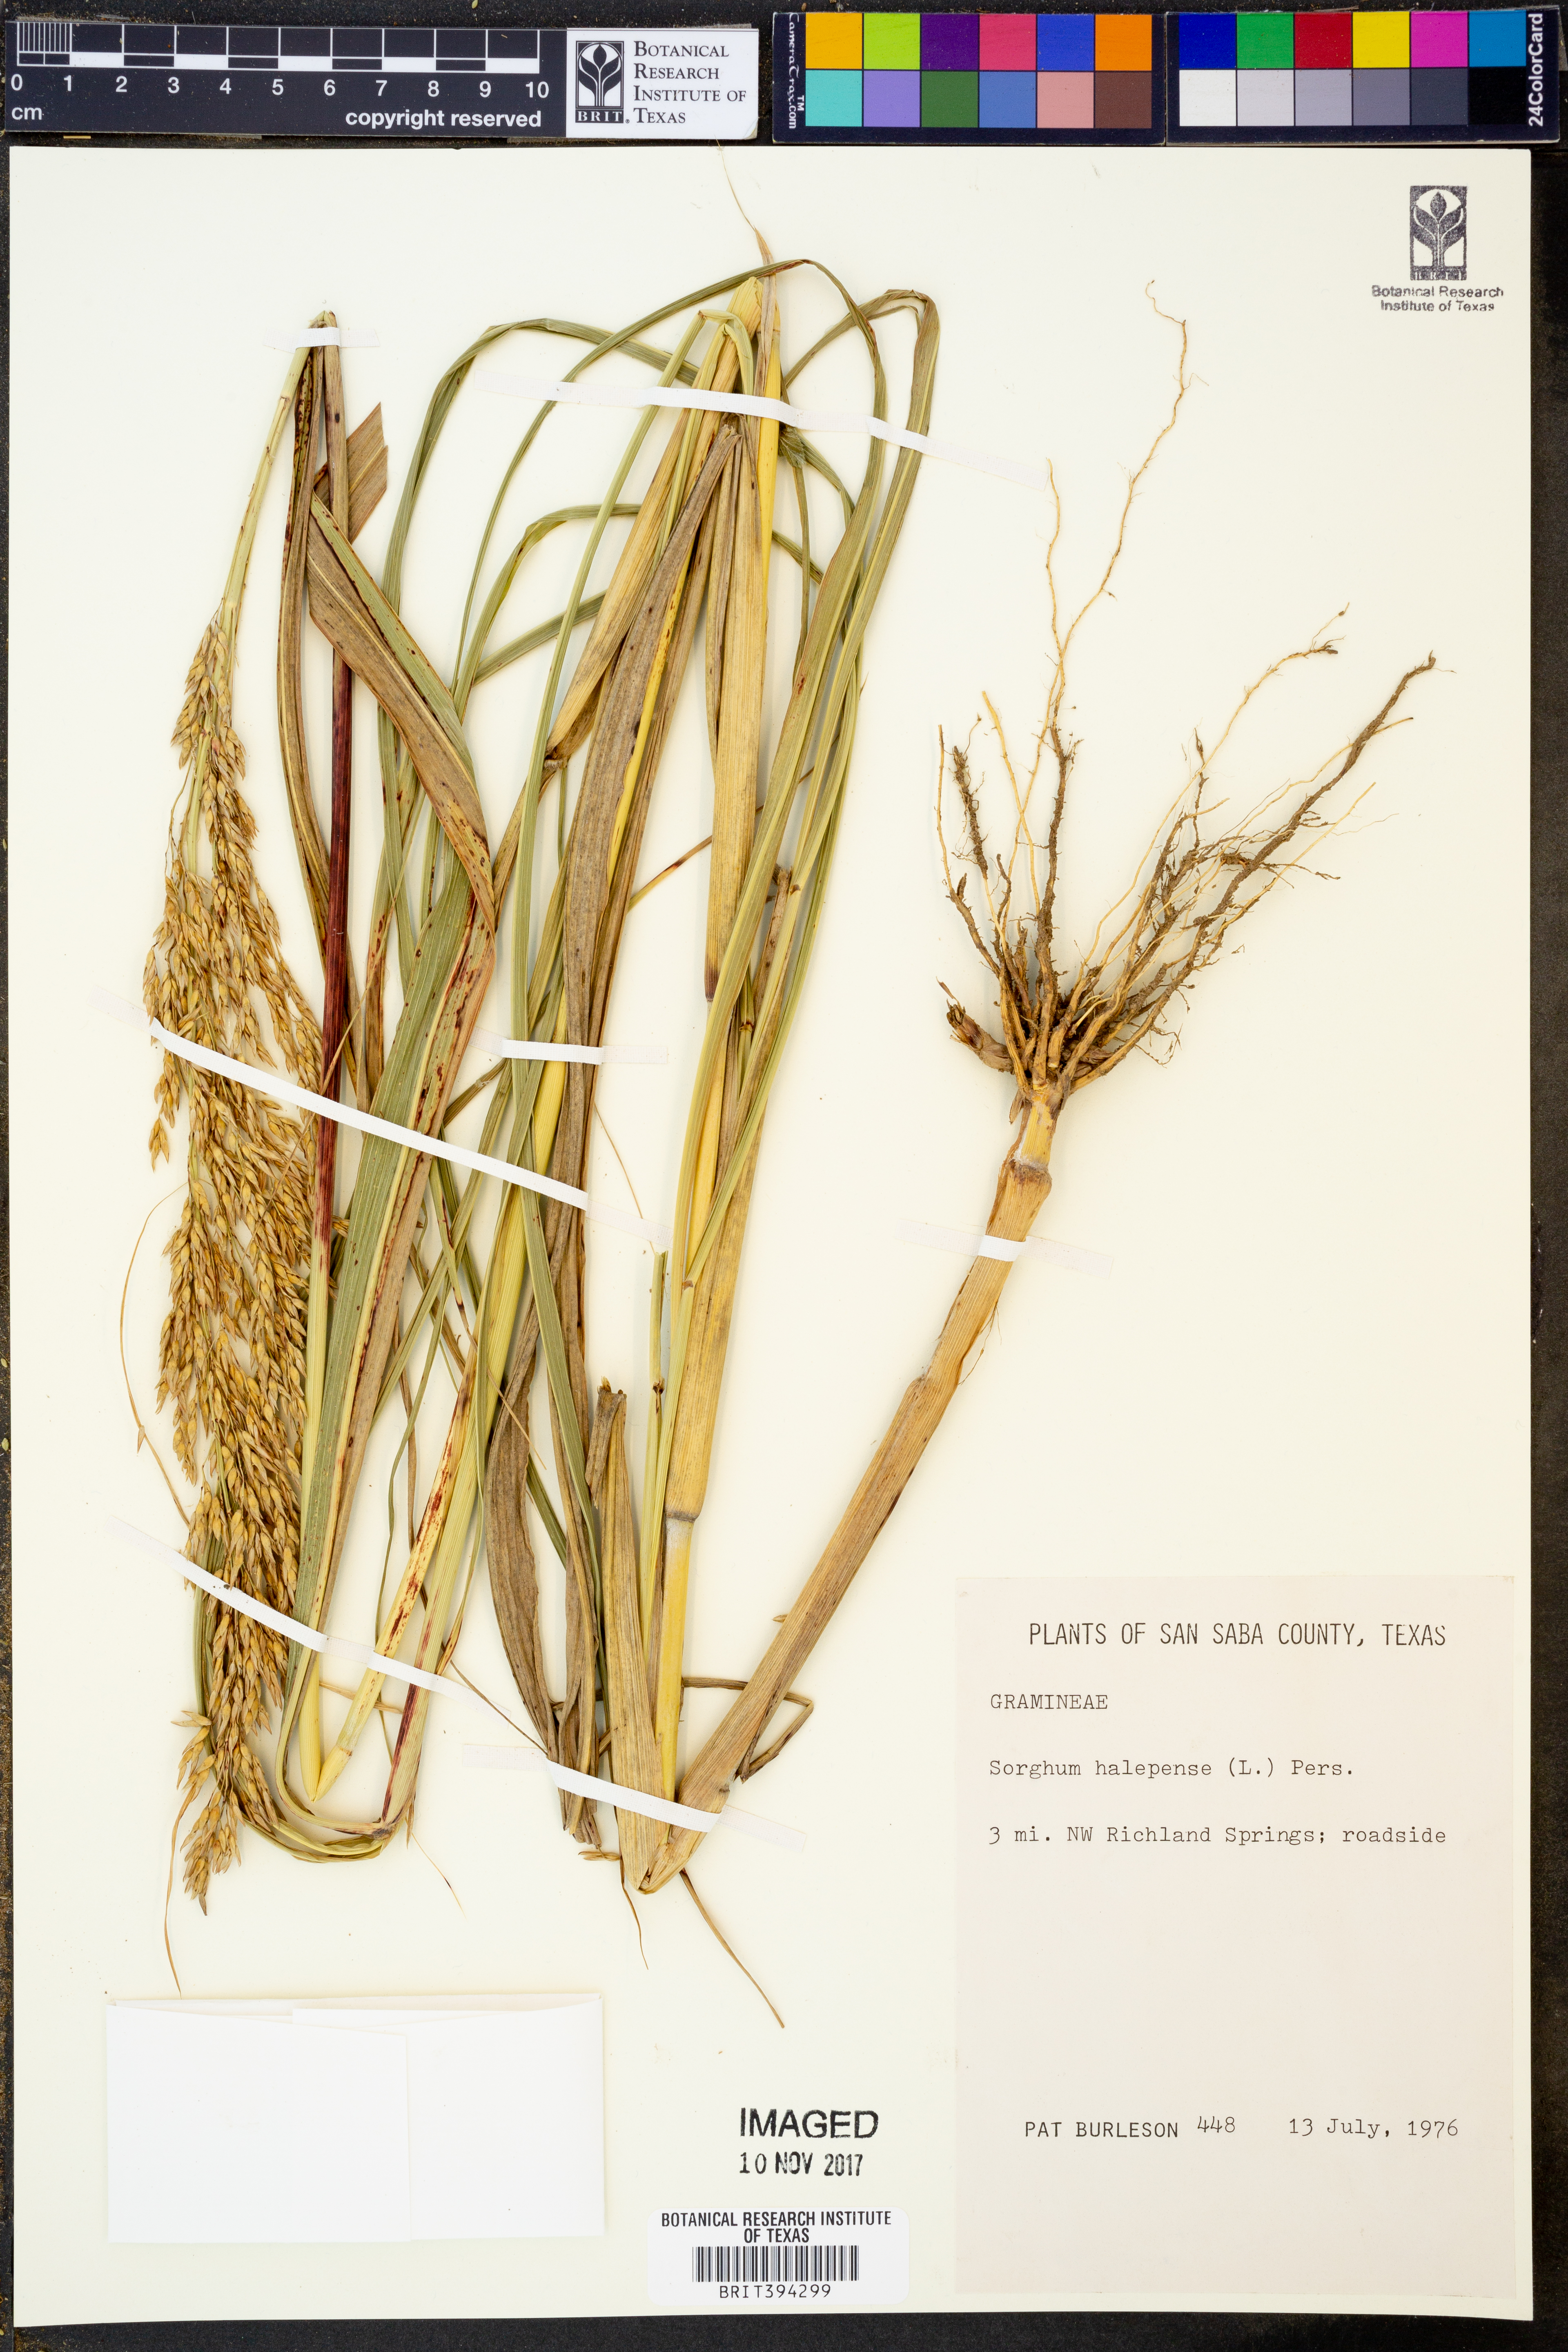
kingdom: Plantae
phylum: Tracheophyta
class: Liliopsida
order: Poales
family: Poaceae
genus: Sorghum
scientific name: Sorghum halepense
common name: Johnson-grass
